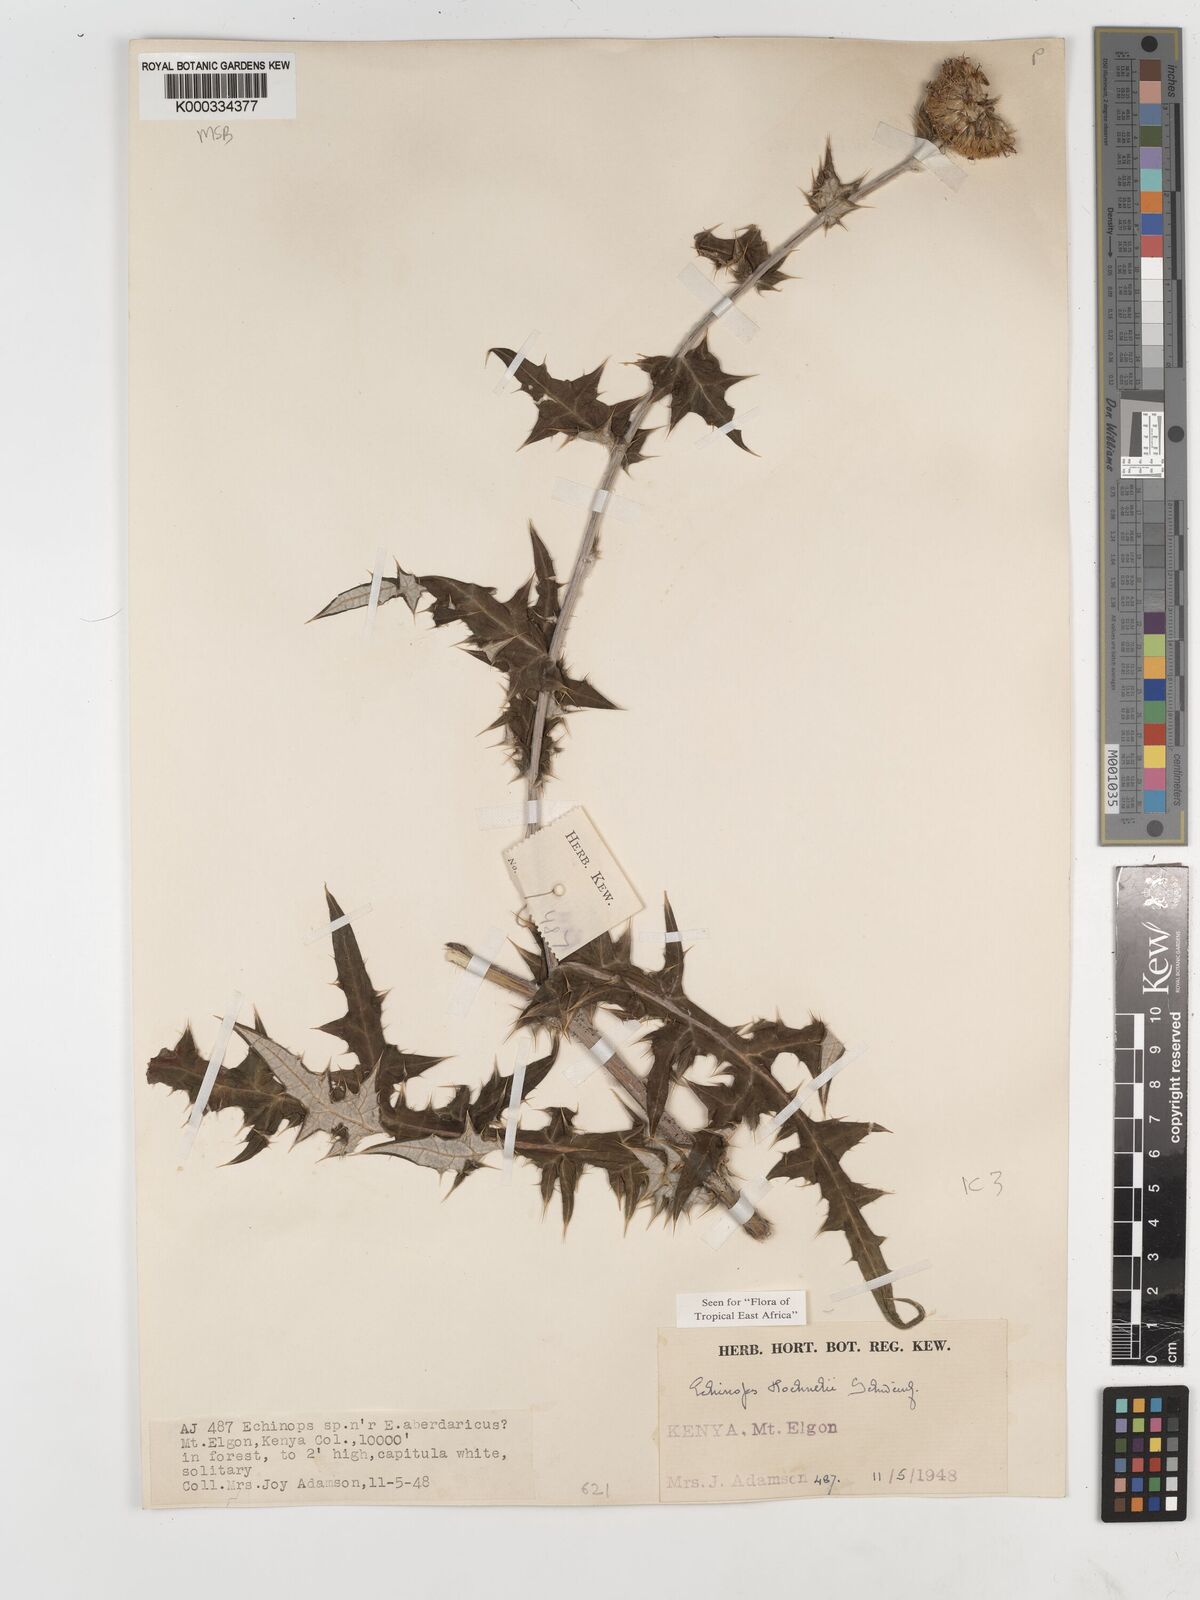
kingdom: Plantae
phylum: Tracheophyta
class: Magnoliopsida
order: Asterales
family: Asteraceae
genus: Echinops
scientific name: Echinops hoehnelii
